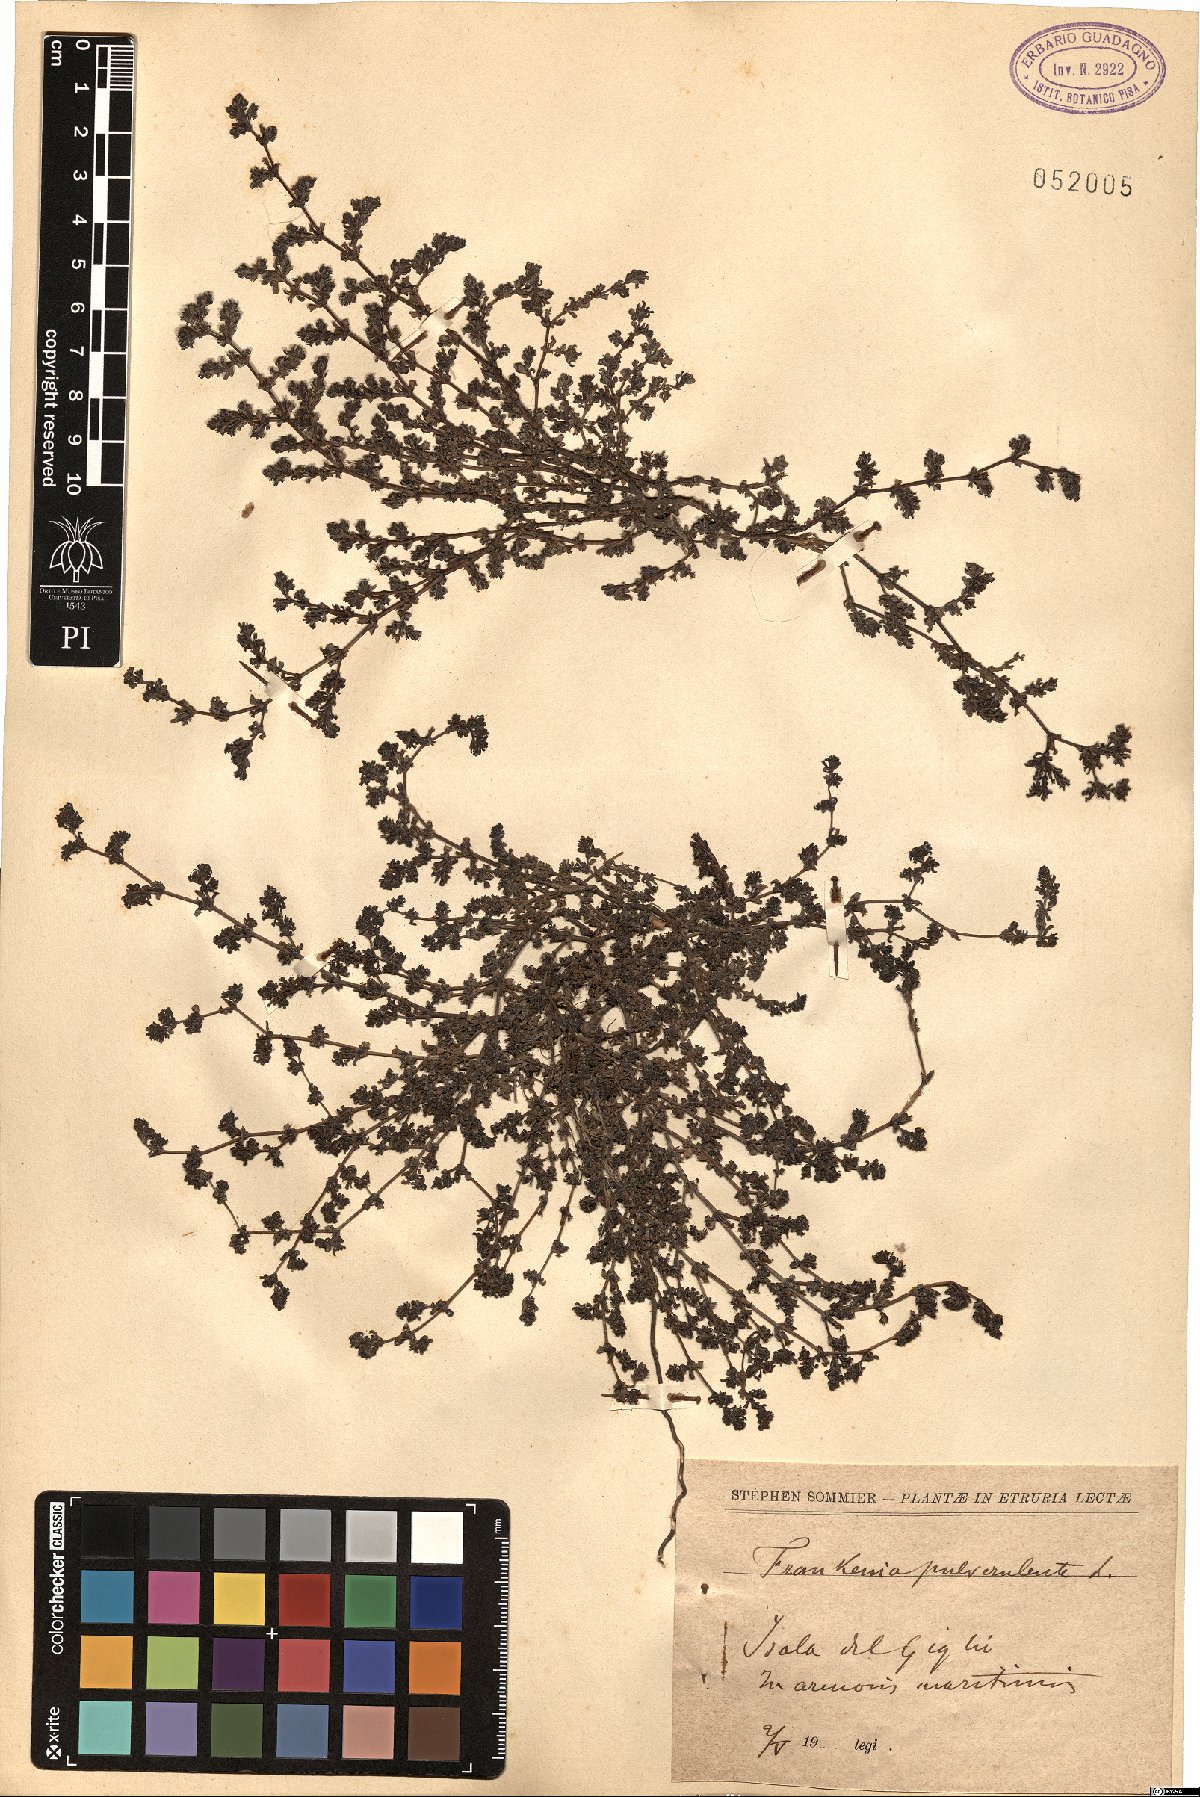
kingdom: Plantae
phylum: Tracheophyta
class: Magnoliopsida
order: Caryophyllales
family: Frankeniaceae
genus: Frankenia
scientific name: Frankenia pulverulenta
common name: European seaheath
